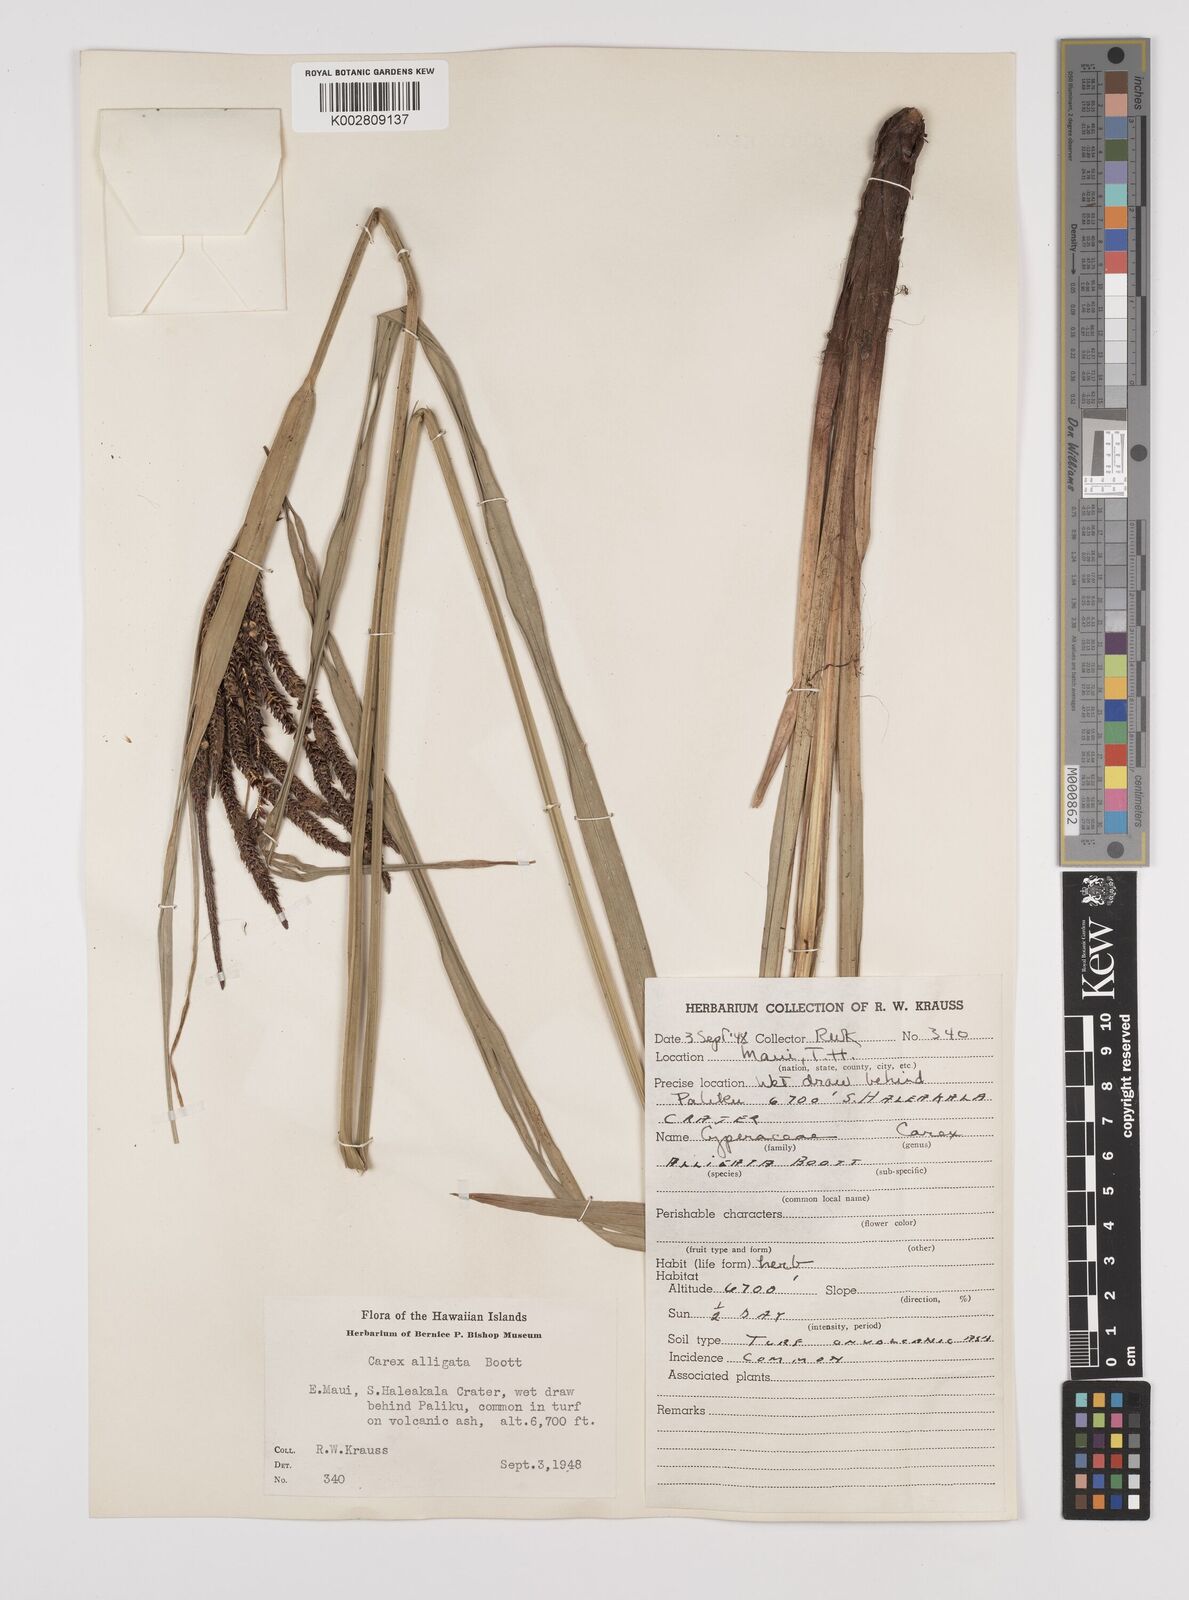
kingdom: Plantae
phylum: Tracheophyta
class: Liliopsida
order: Poales
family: Cyperaceae
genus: Carex
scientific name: Carex alligata
